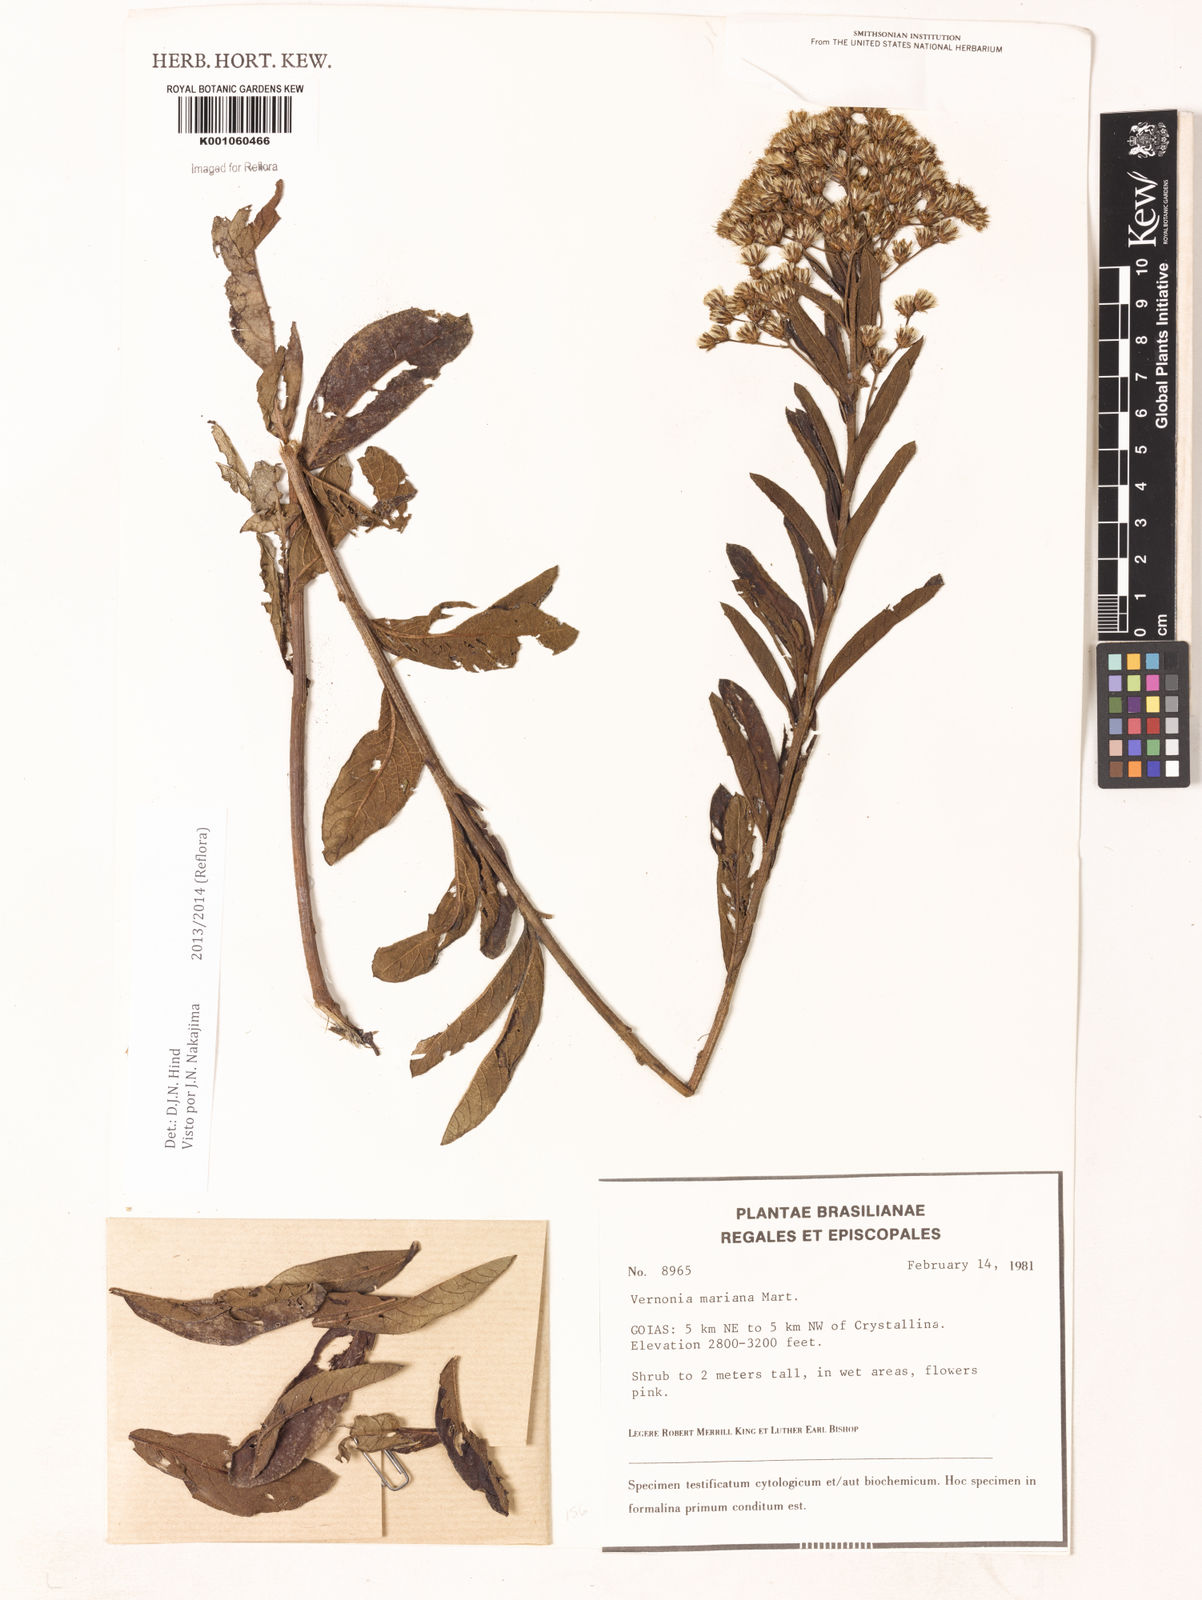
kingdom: Plantae
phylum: Tracheophyta
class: Magnoliopsida
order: Asterales
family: Asteraceae
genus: Vernonanthura
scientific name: Vernonanthura cymosa
